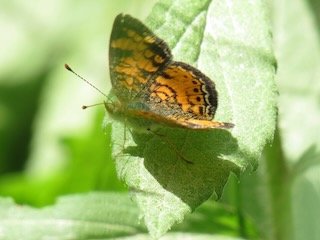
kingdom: Animalia
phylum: Arthropoda
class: Insecta
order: Lepidoptera
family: Nymphalidae
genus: Phyciodes
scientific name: Phyciodes tharos
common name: Pearl Crescent
